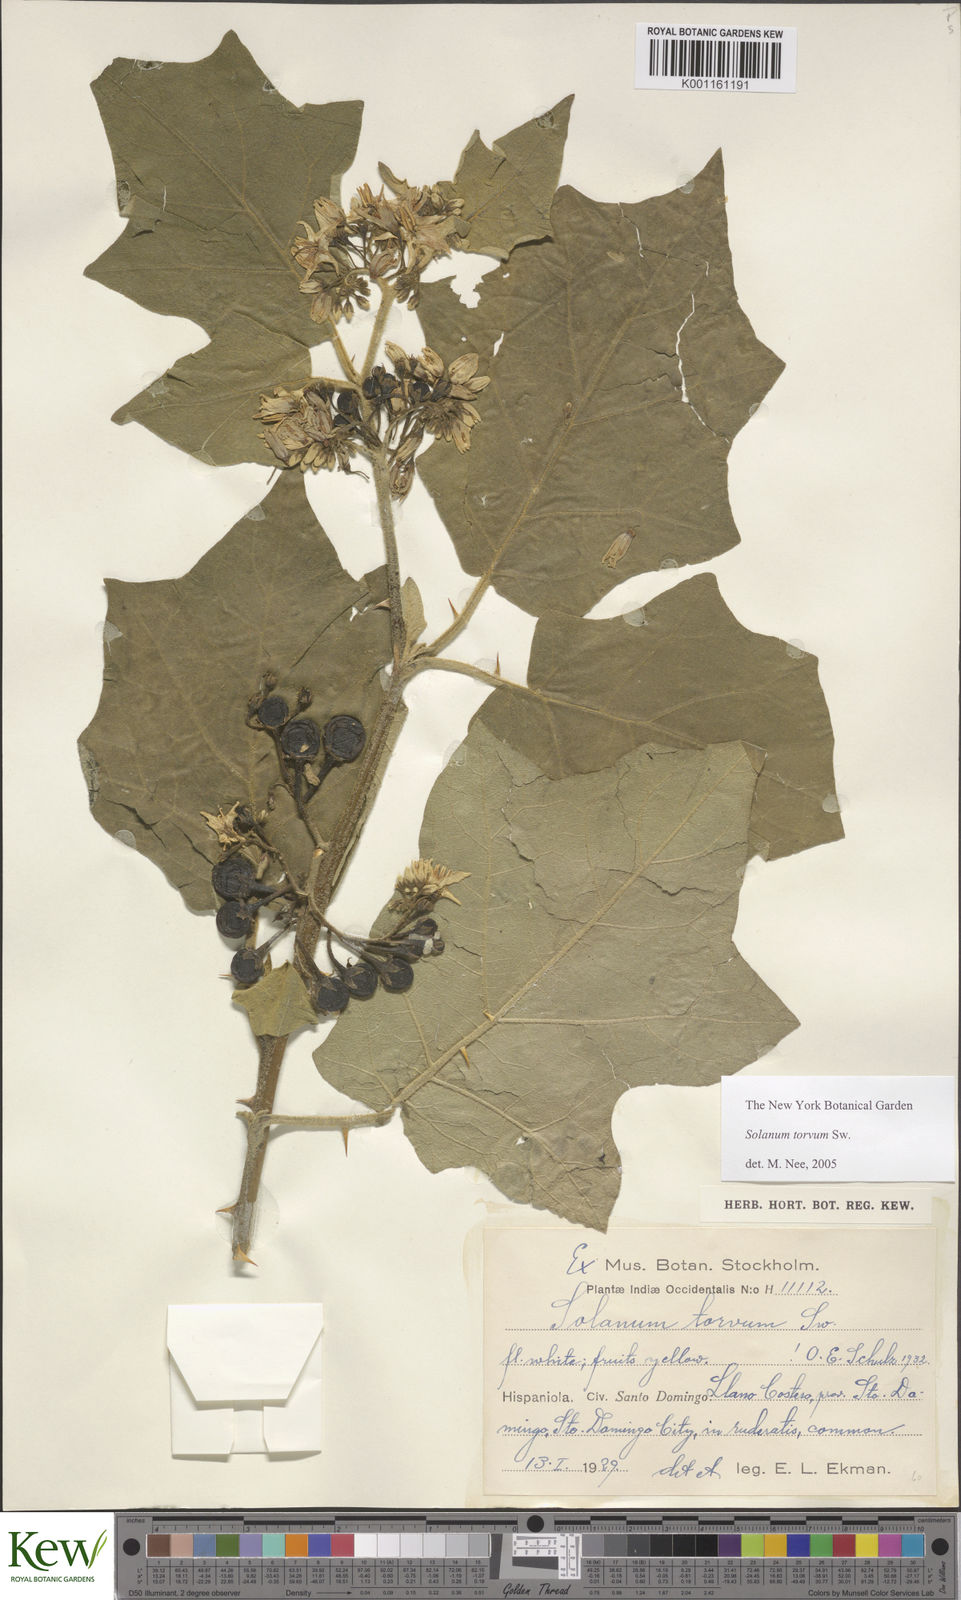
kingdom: Plantae
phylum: Tracheophyta
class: Magnoliopsida
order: Solanales
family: Solanaceae
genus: Solanum
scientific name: Solanum torvum
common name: Turkey berry
